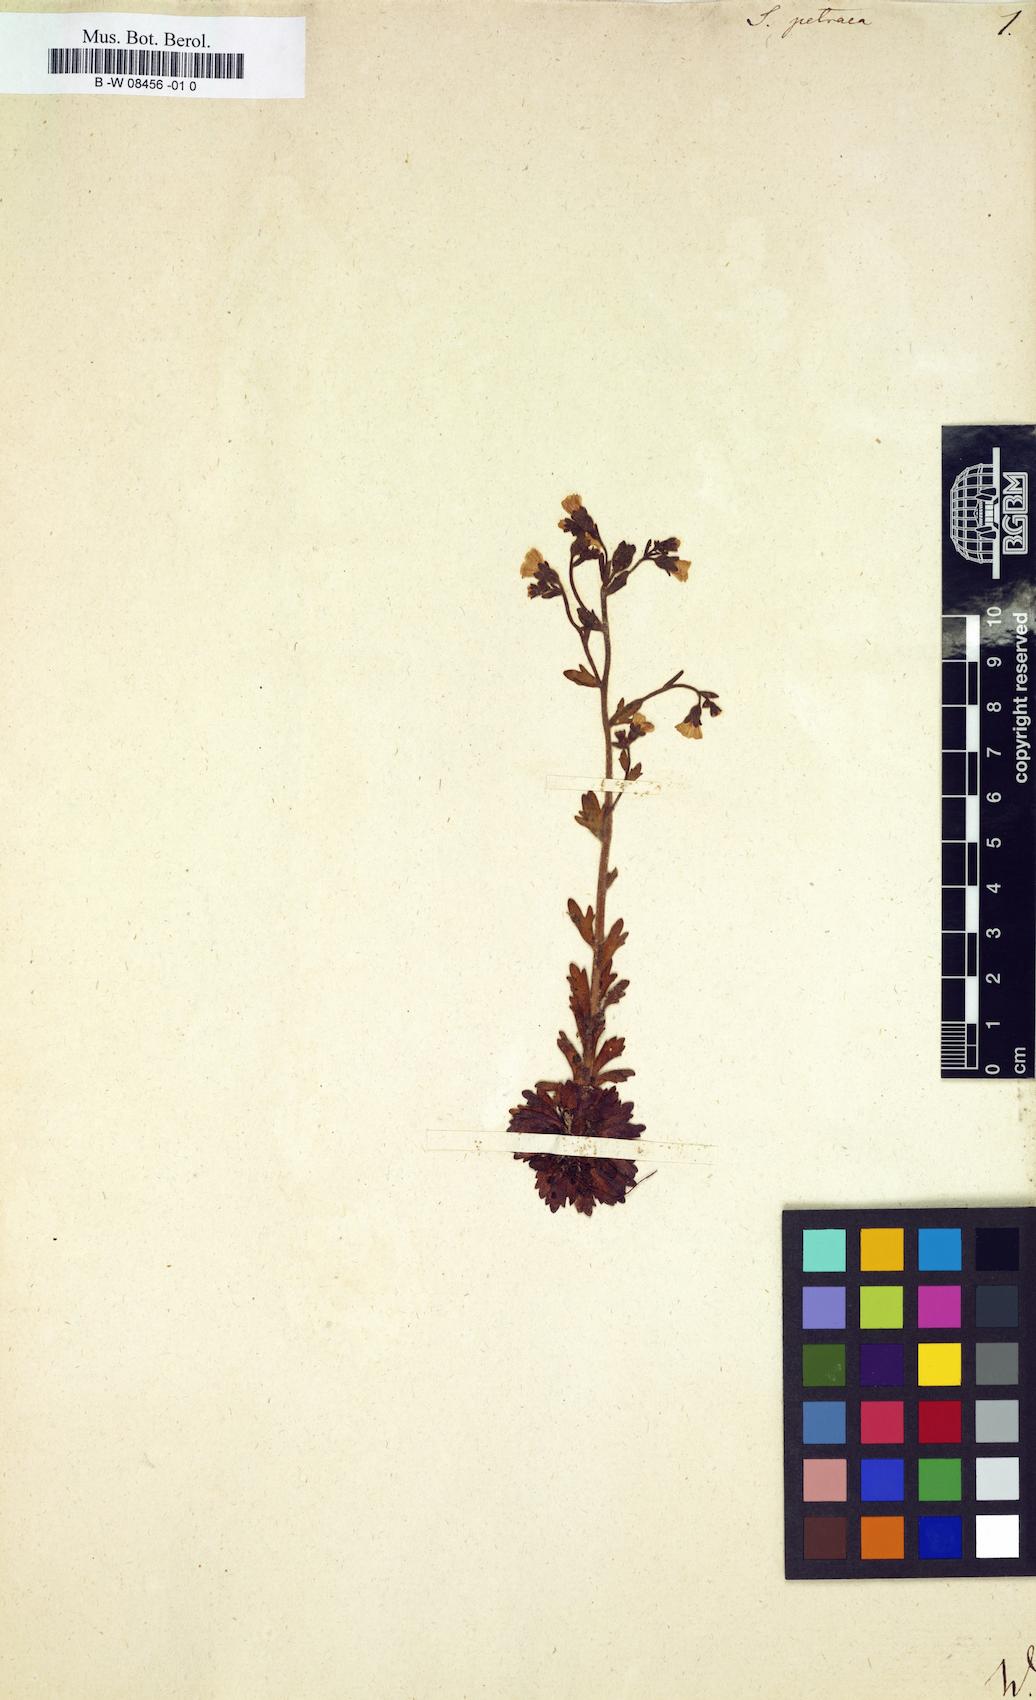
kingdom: Plantae
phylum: Tracheophyta
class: Magnoliopsida
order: Saxifragales
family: Saxifragaceae
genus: Saxifraga
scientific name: Saxifraga petraea
